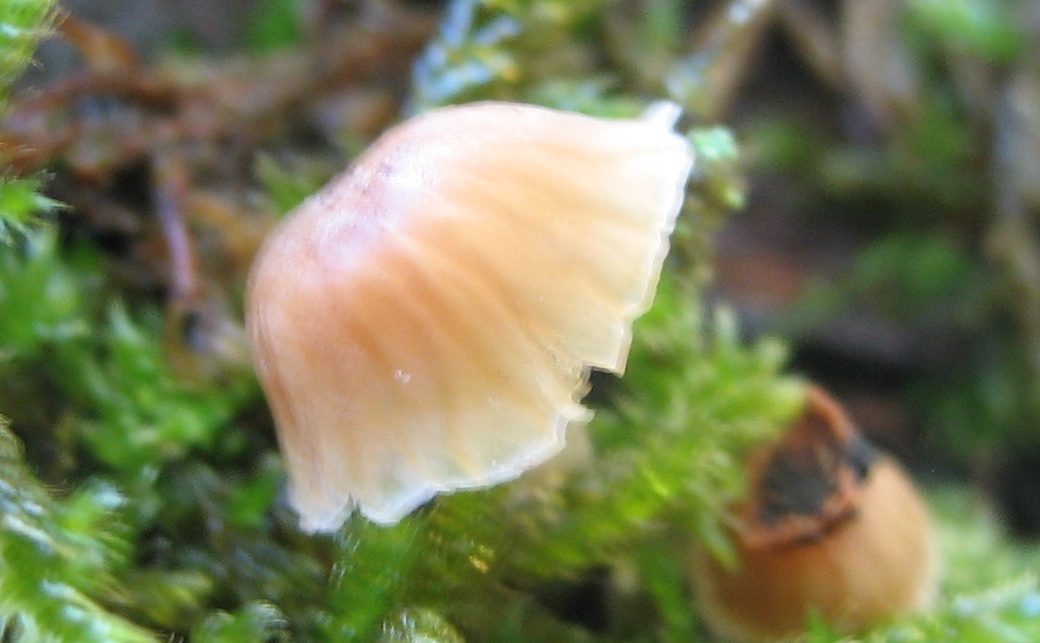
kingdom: Fungi
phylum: Basidiomycota
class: Agaricomycetes
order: Agaricales
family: Mycenaceae
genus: Mycena
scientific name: Mycena juniperina
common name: ene-Huesvamp
